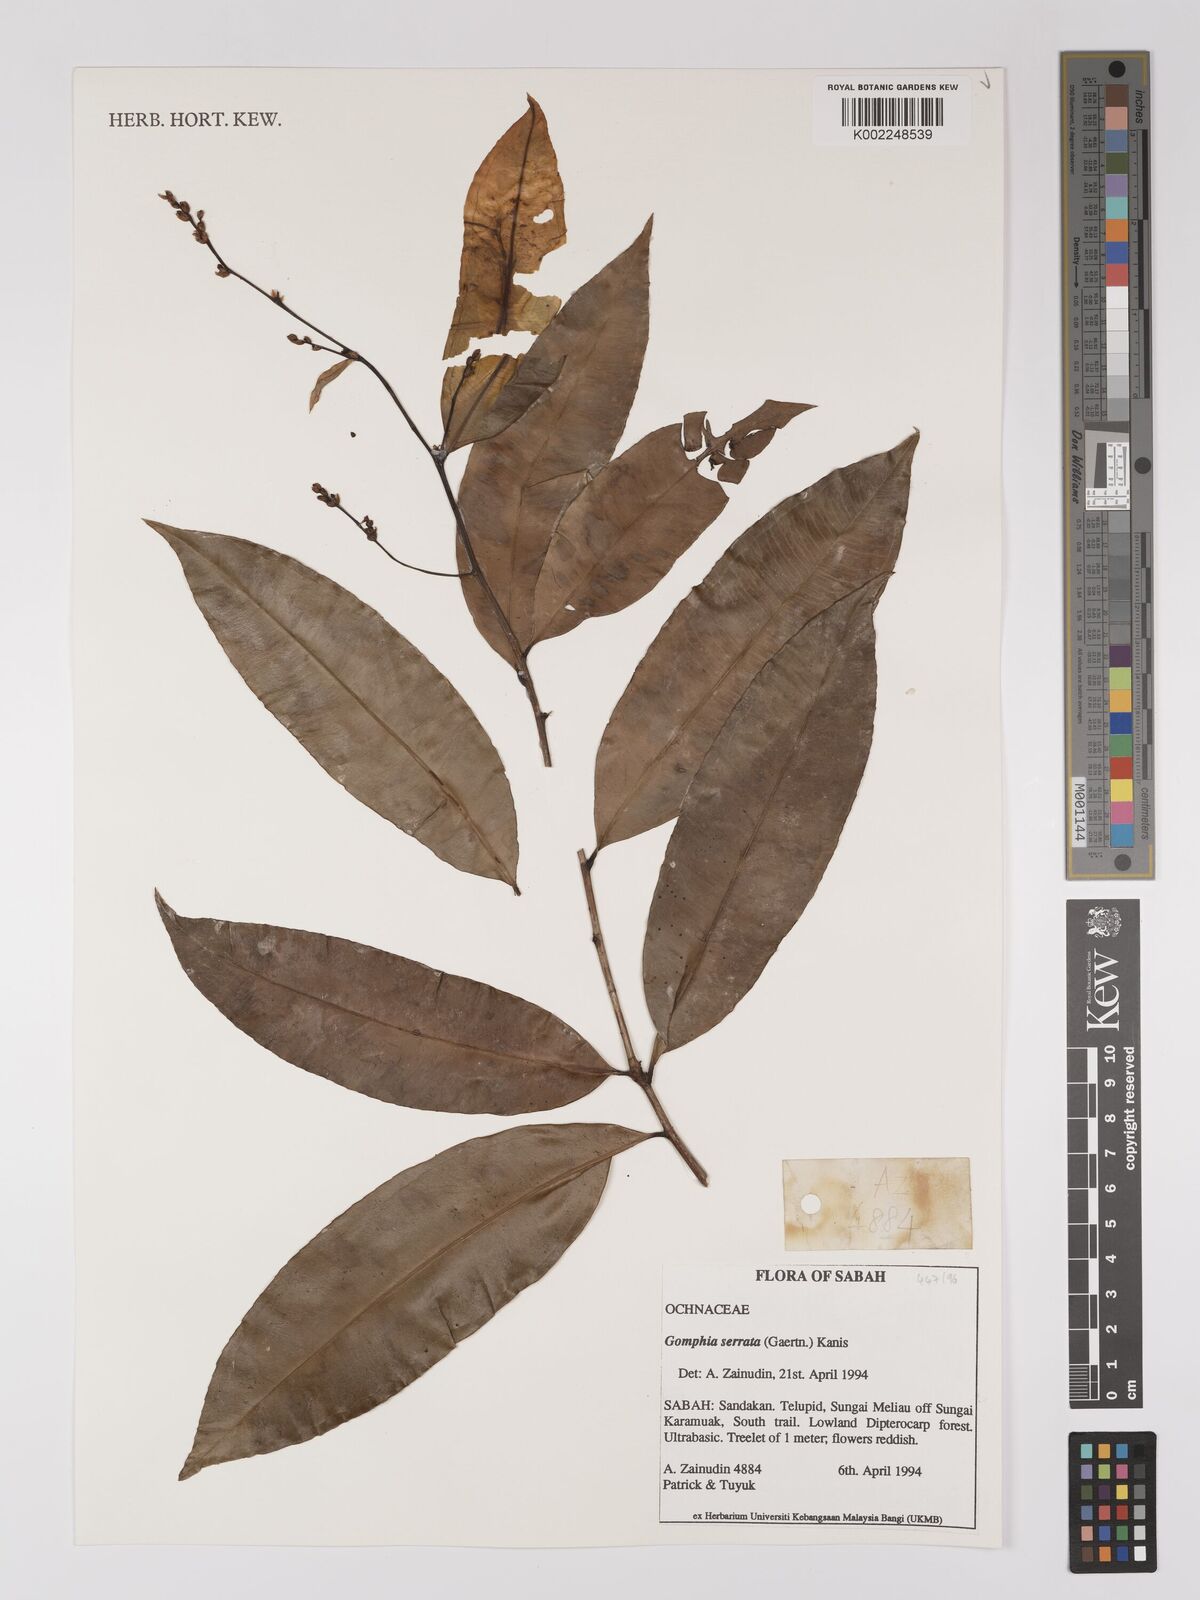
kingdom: Plantae
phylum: Tracheophyta
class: Magnoliopsida
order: Malpighiales
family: Ochnaceae
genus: Gomphia
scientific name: Gomphia serrata
